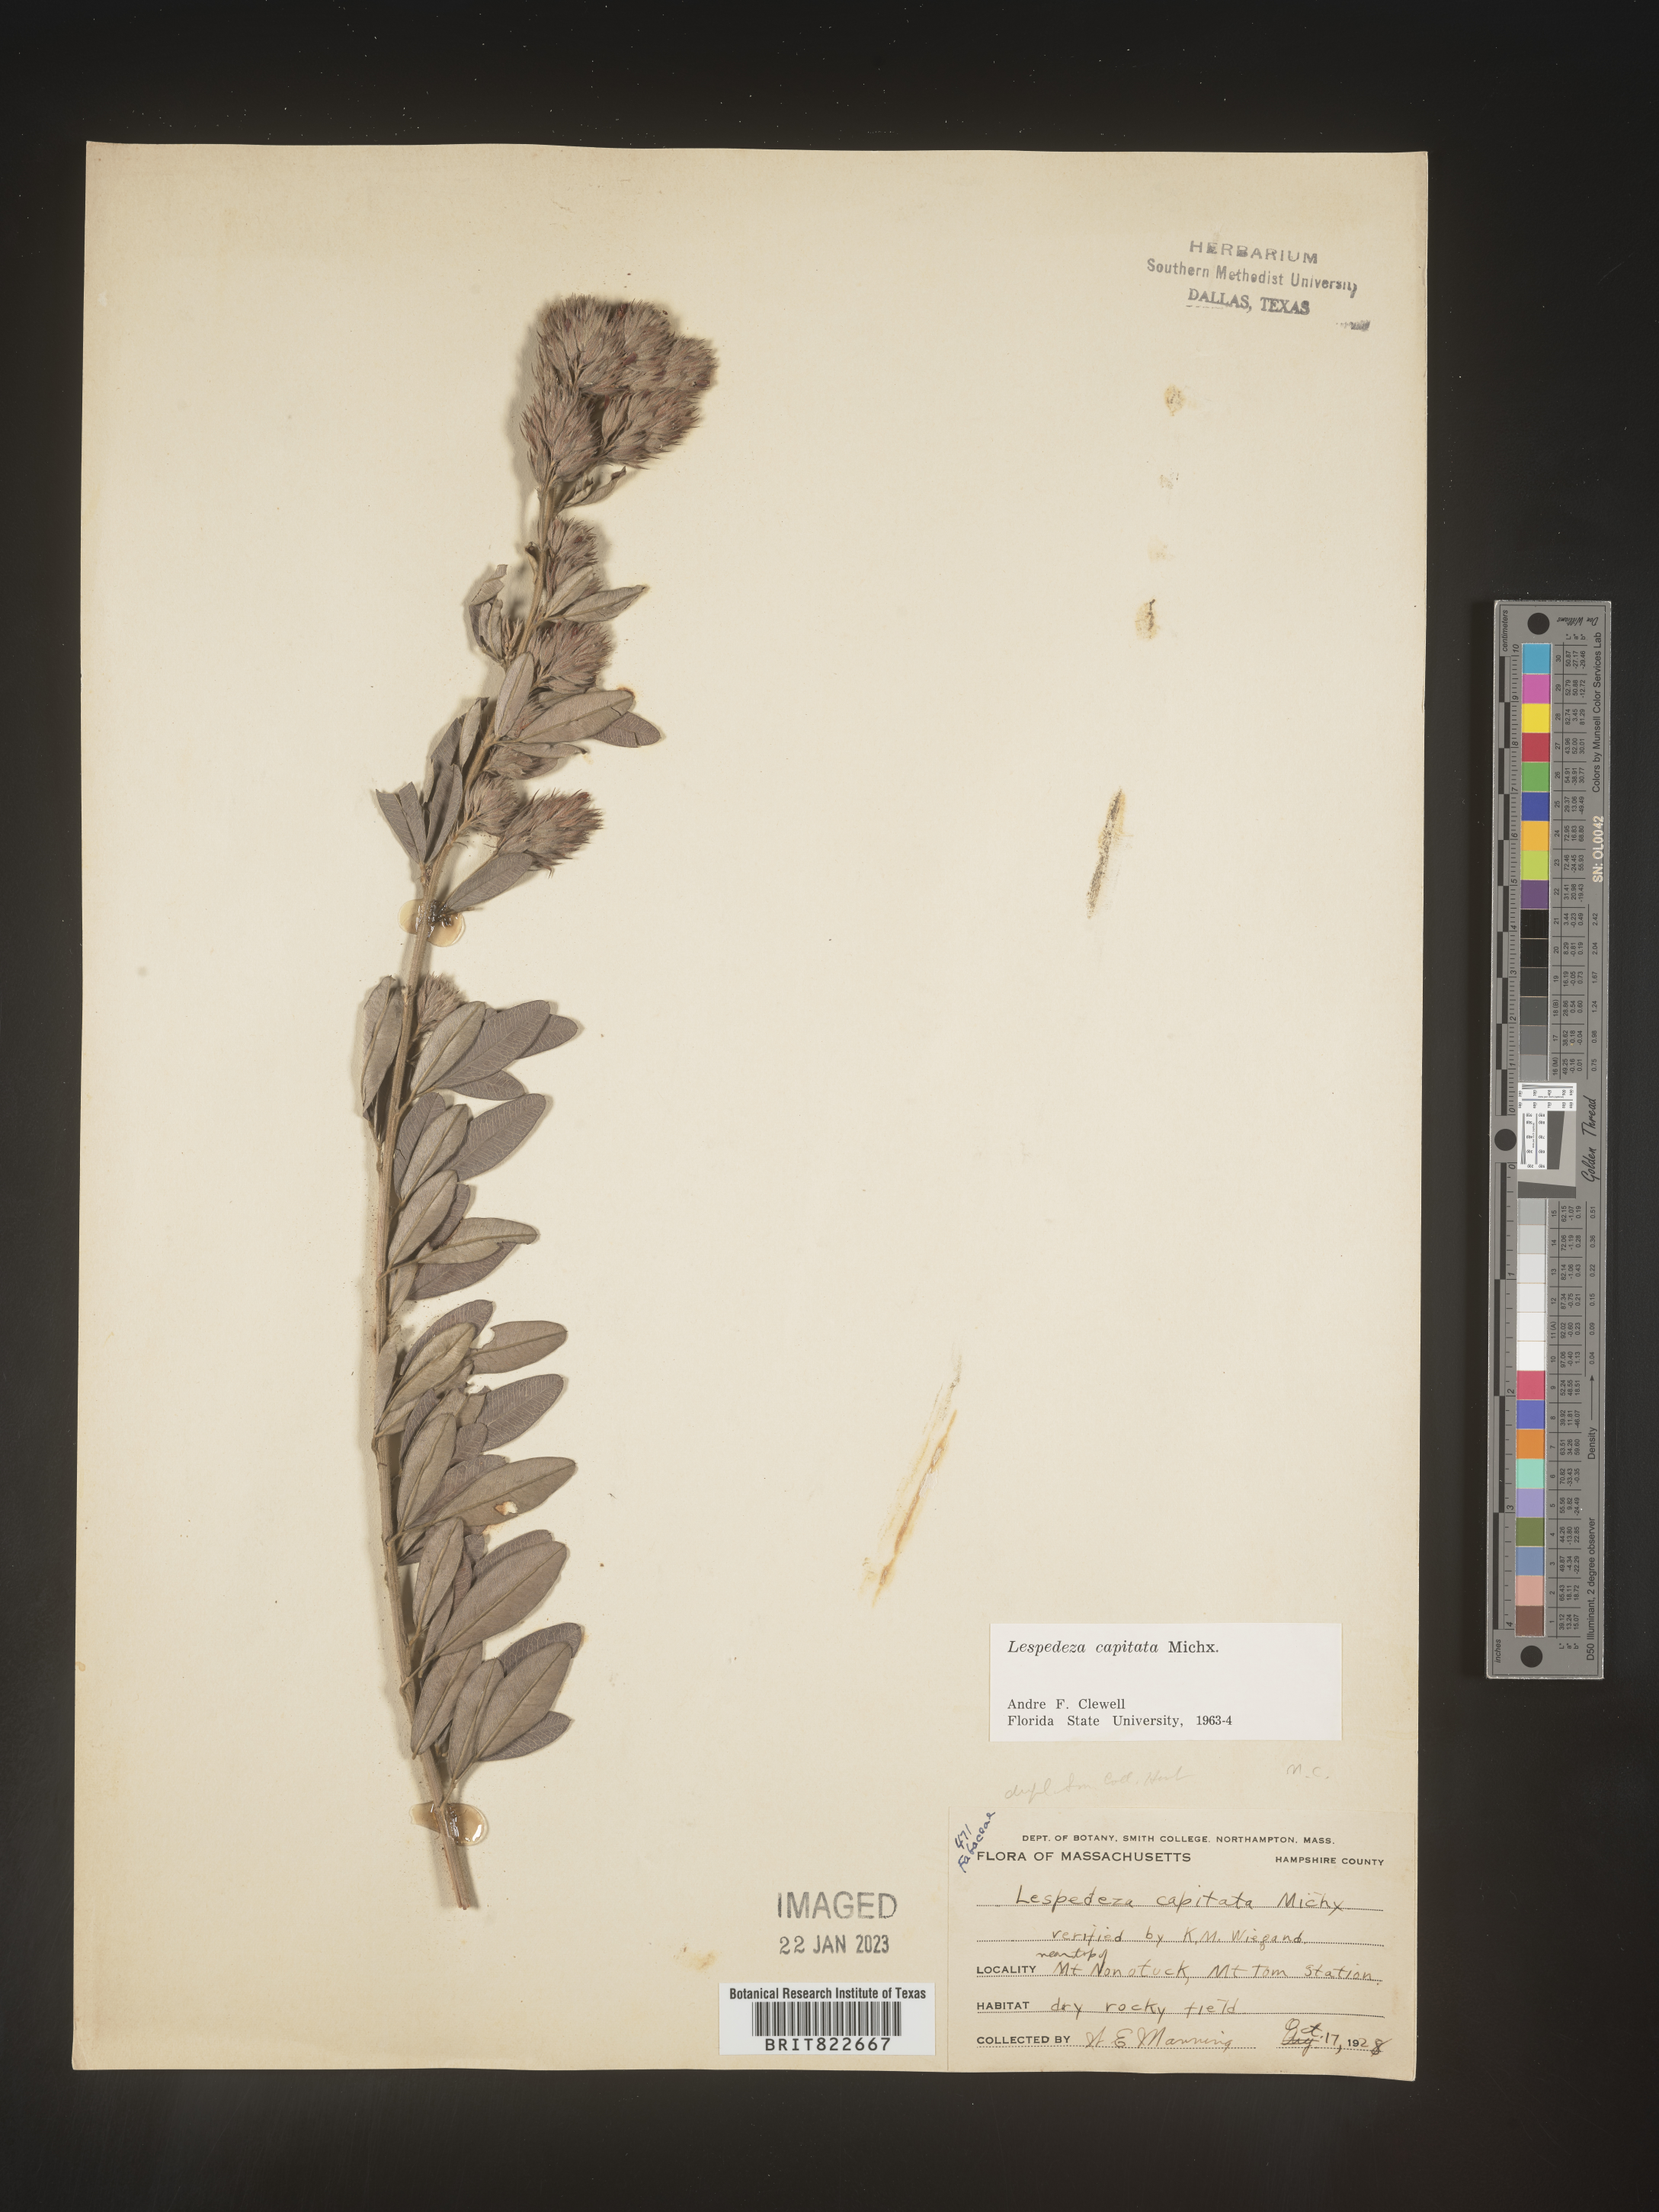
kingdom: Plantae
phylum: Tracheophyta
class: Magnoliopsida
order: Fabales
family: Fabaceae
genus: Lespedeza
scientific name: Lespedeza capitata
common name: Dusty clover
